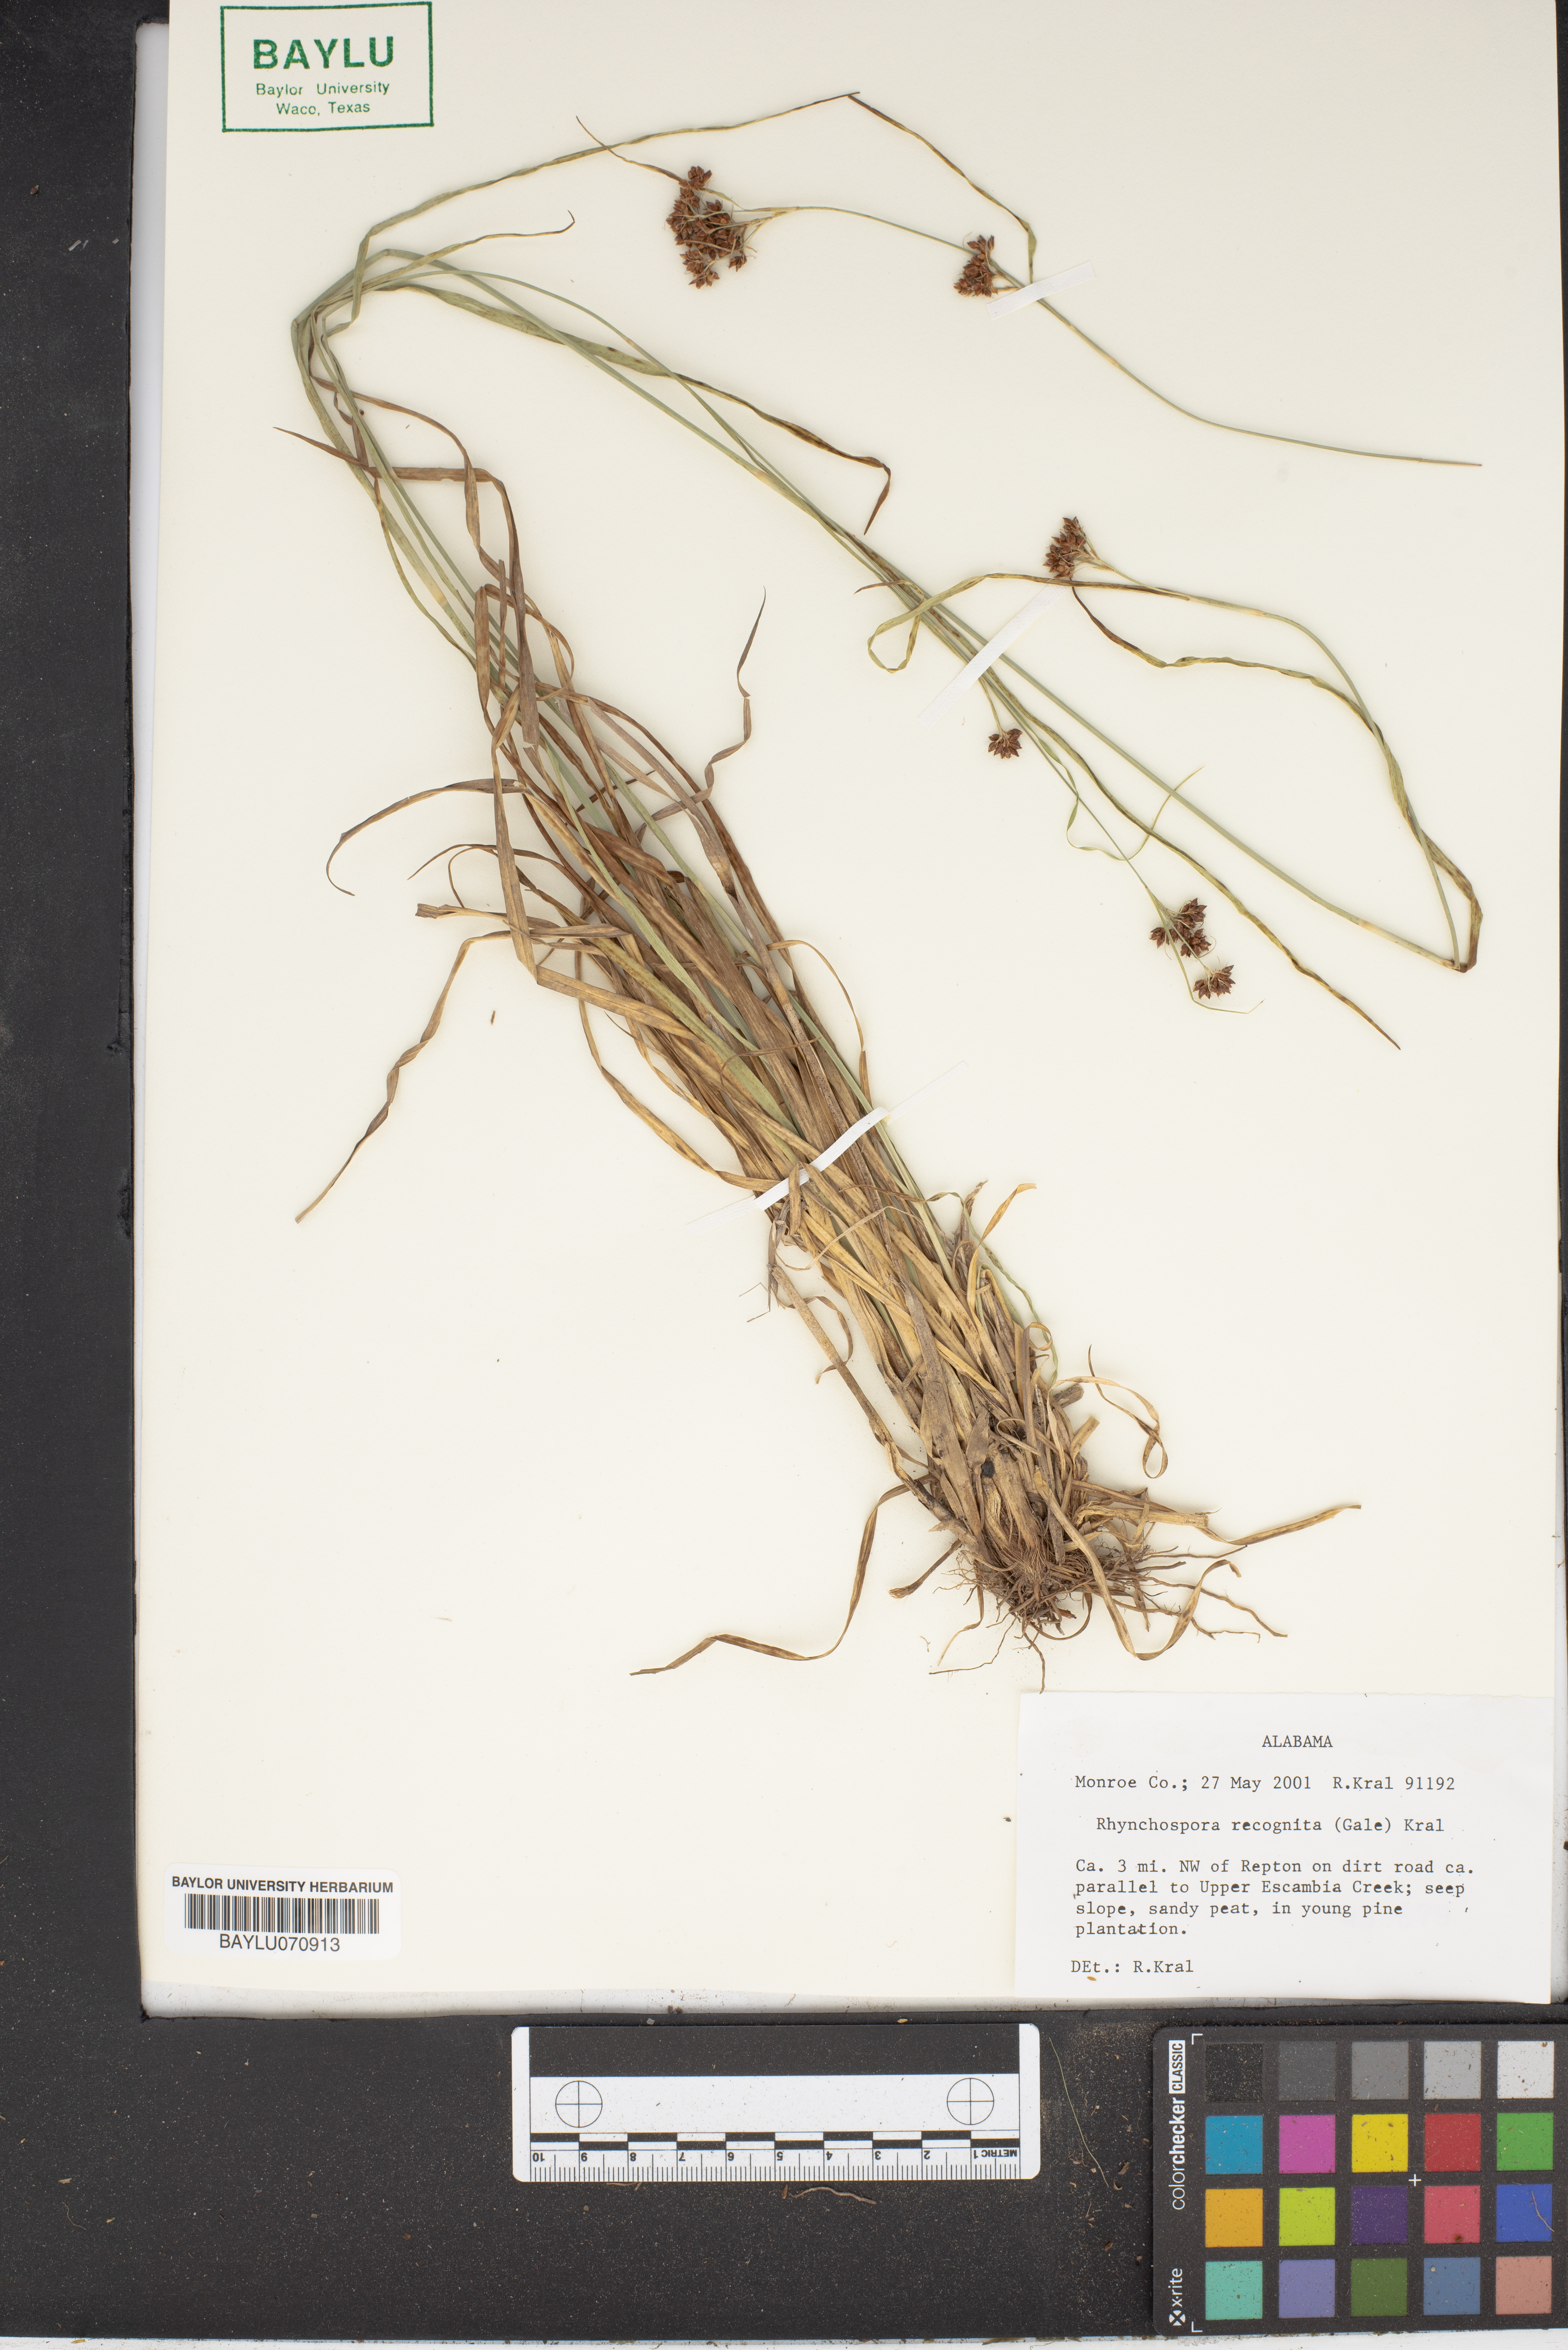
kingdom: Plantae
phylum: Tracheophyta
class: Liliopsida
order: Poales
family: Cyperaceae
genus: Rhynchospora
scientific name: Rhynchospora recognita
